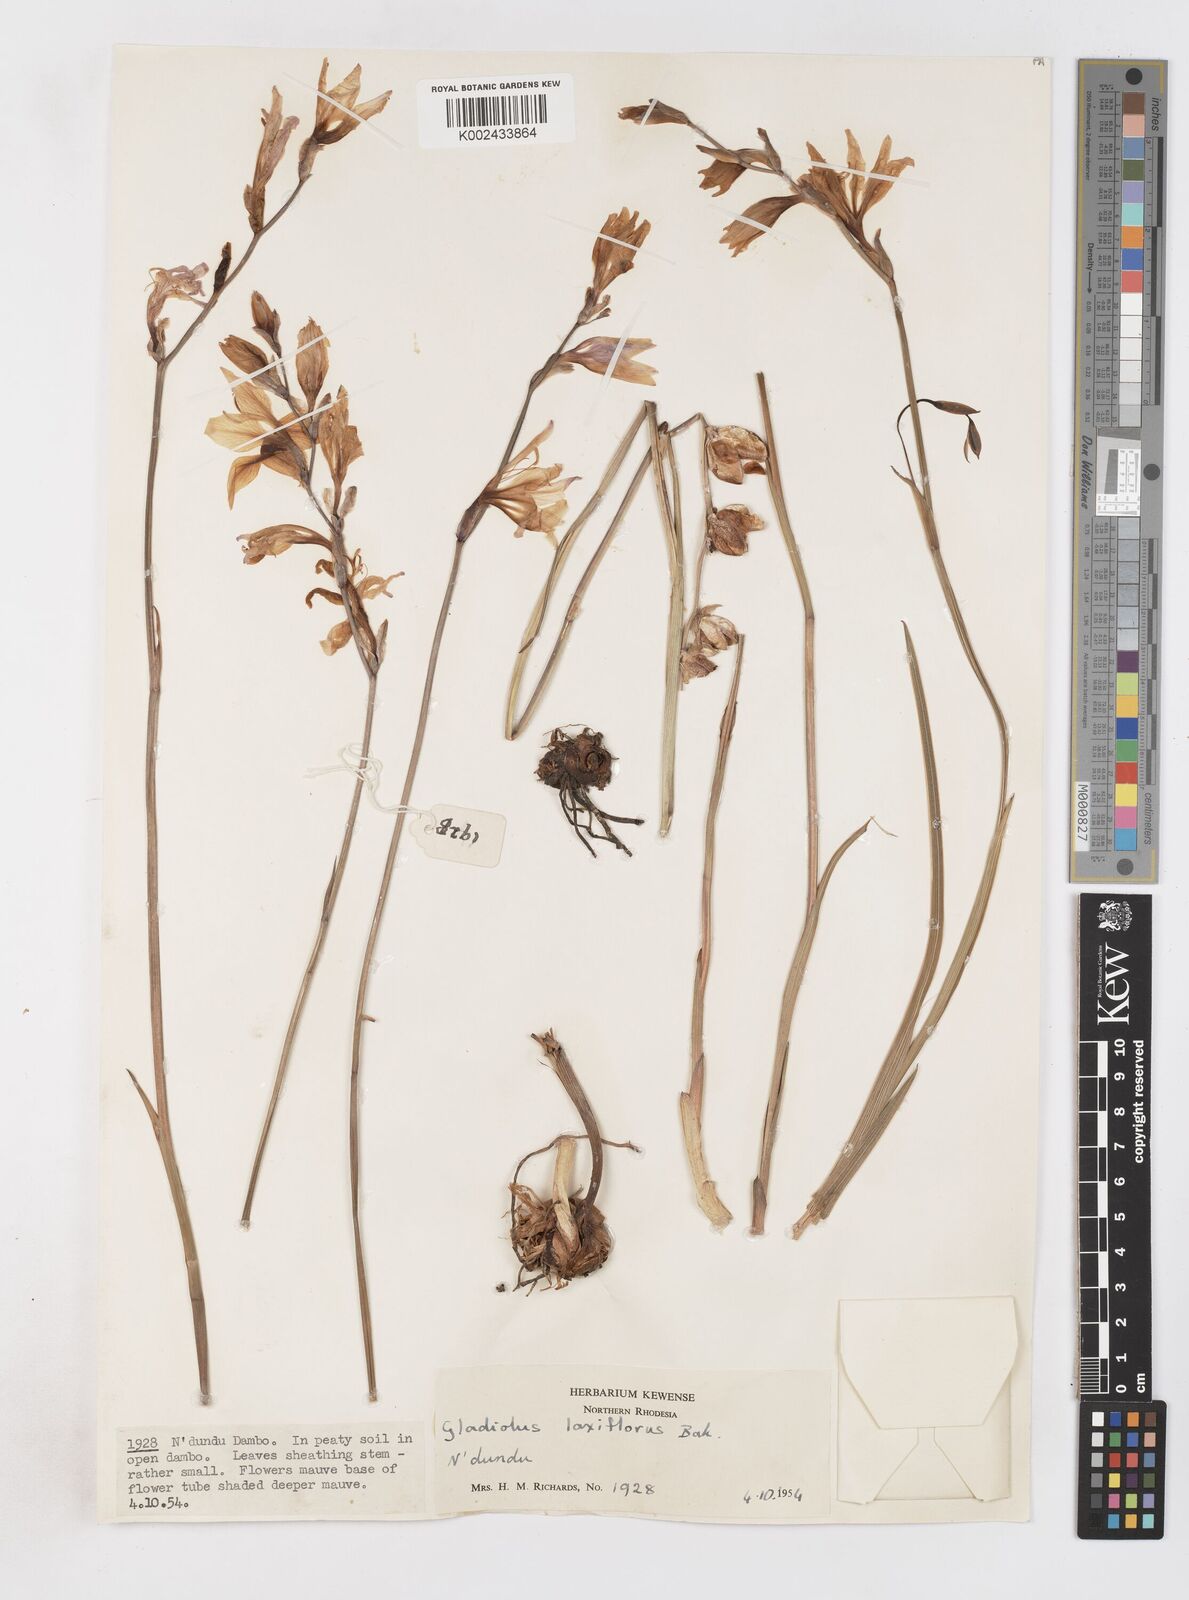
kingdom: Plantae
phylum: Tracheophyta
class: Liliopsida
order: Asparagales
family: Iridaceae
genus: Gladiolus
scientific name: Gladiolus laxiflorus
